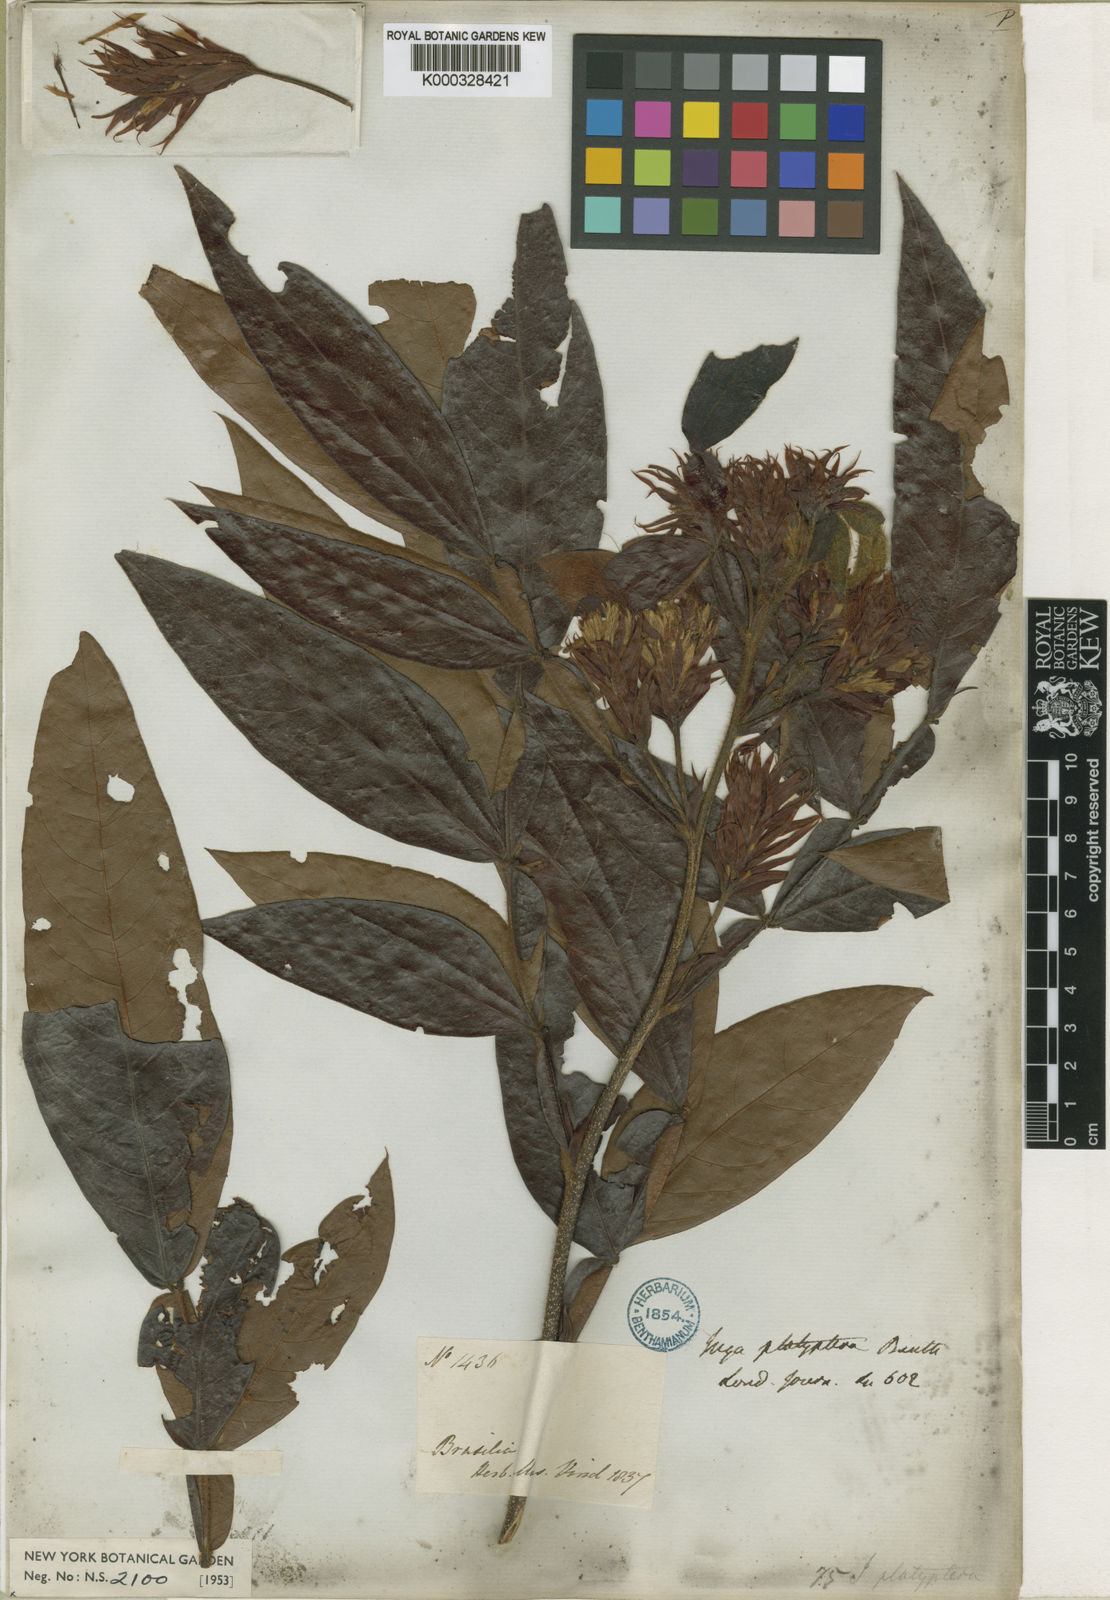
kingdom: Plantae
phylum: Tracheophyta
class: Magnoliopsida
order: Fabales
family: Fabaceae
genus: Inga
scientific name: Inga platyptera
